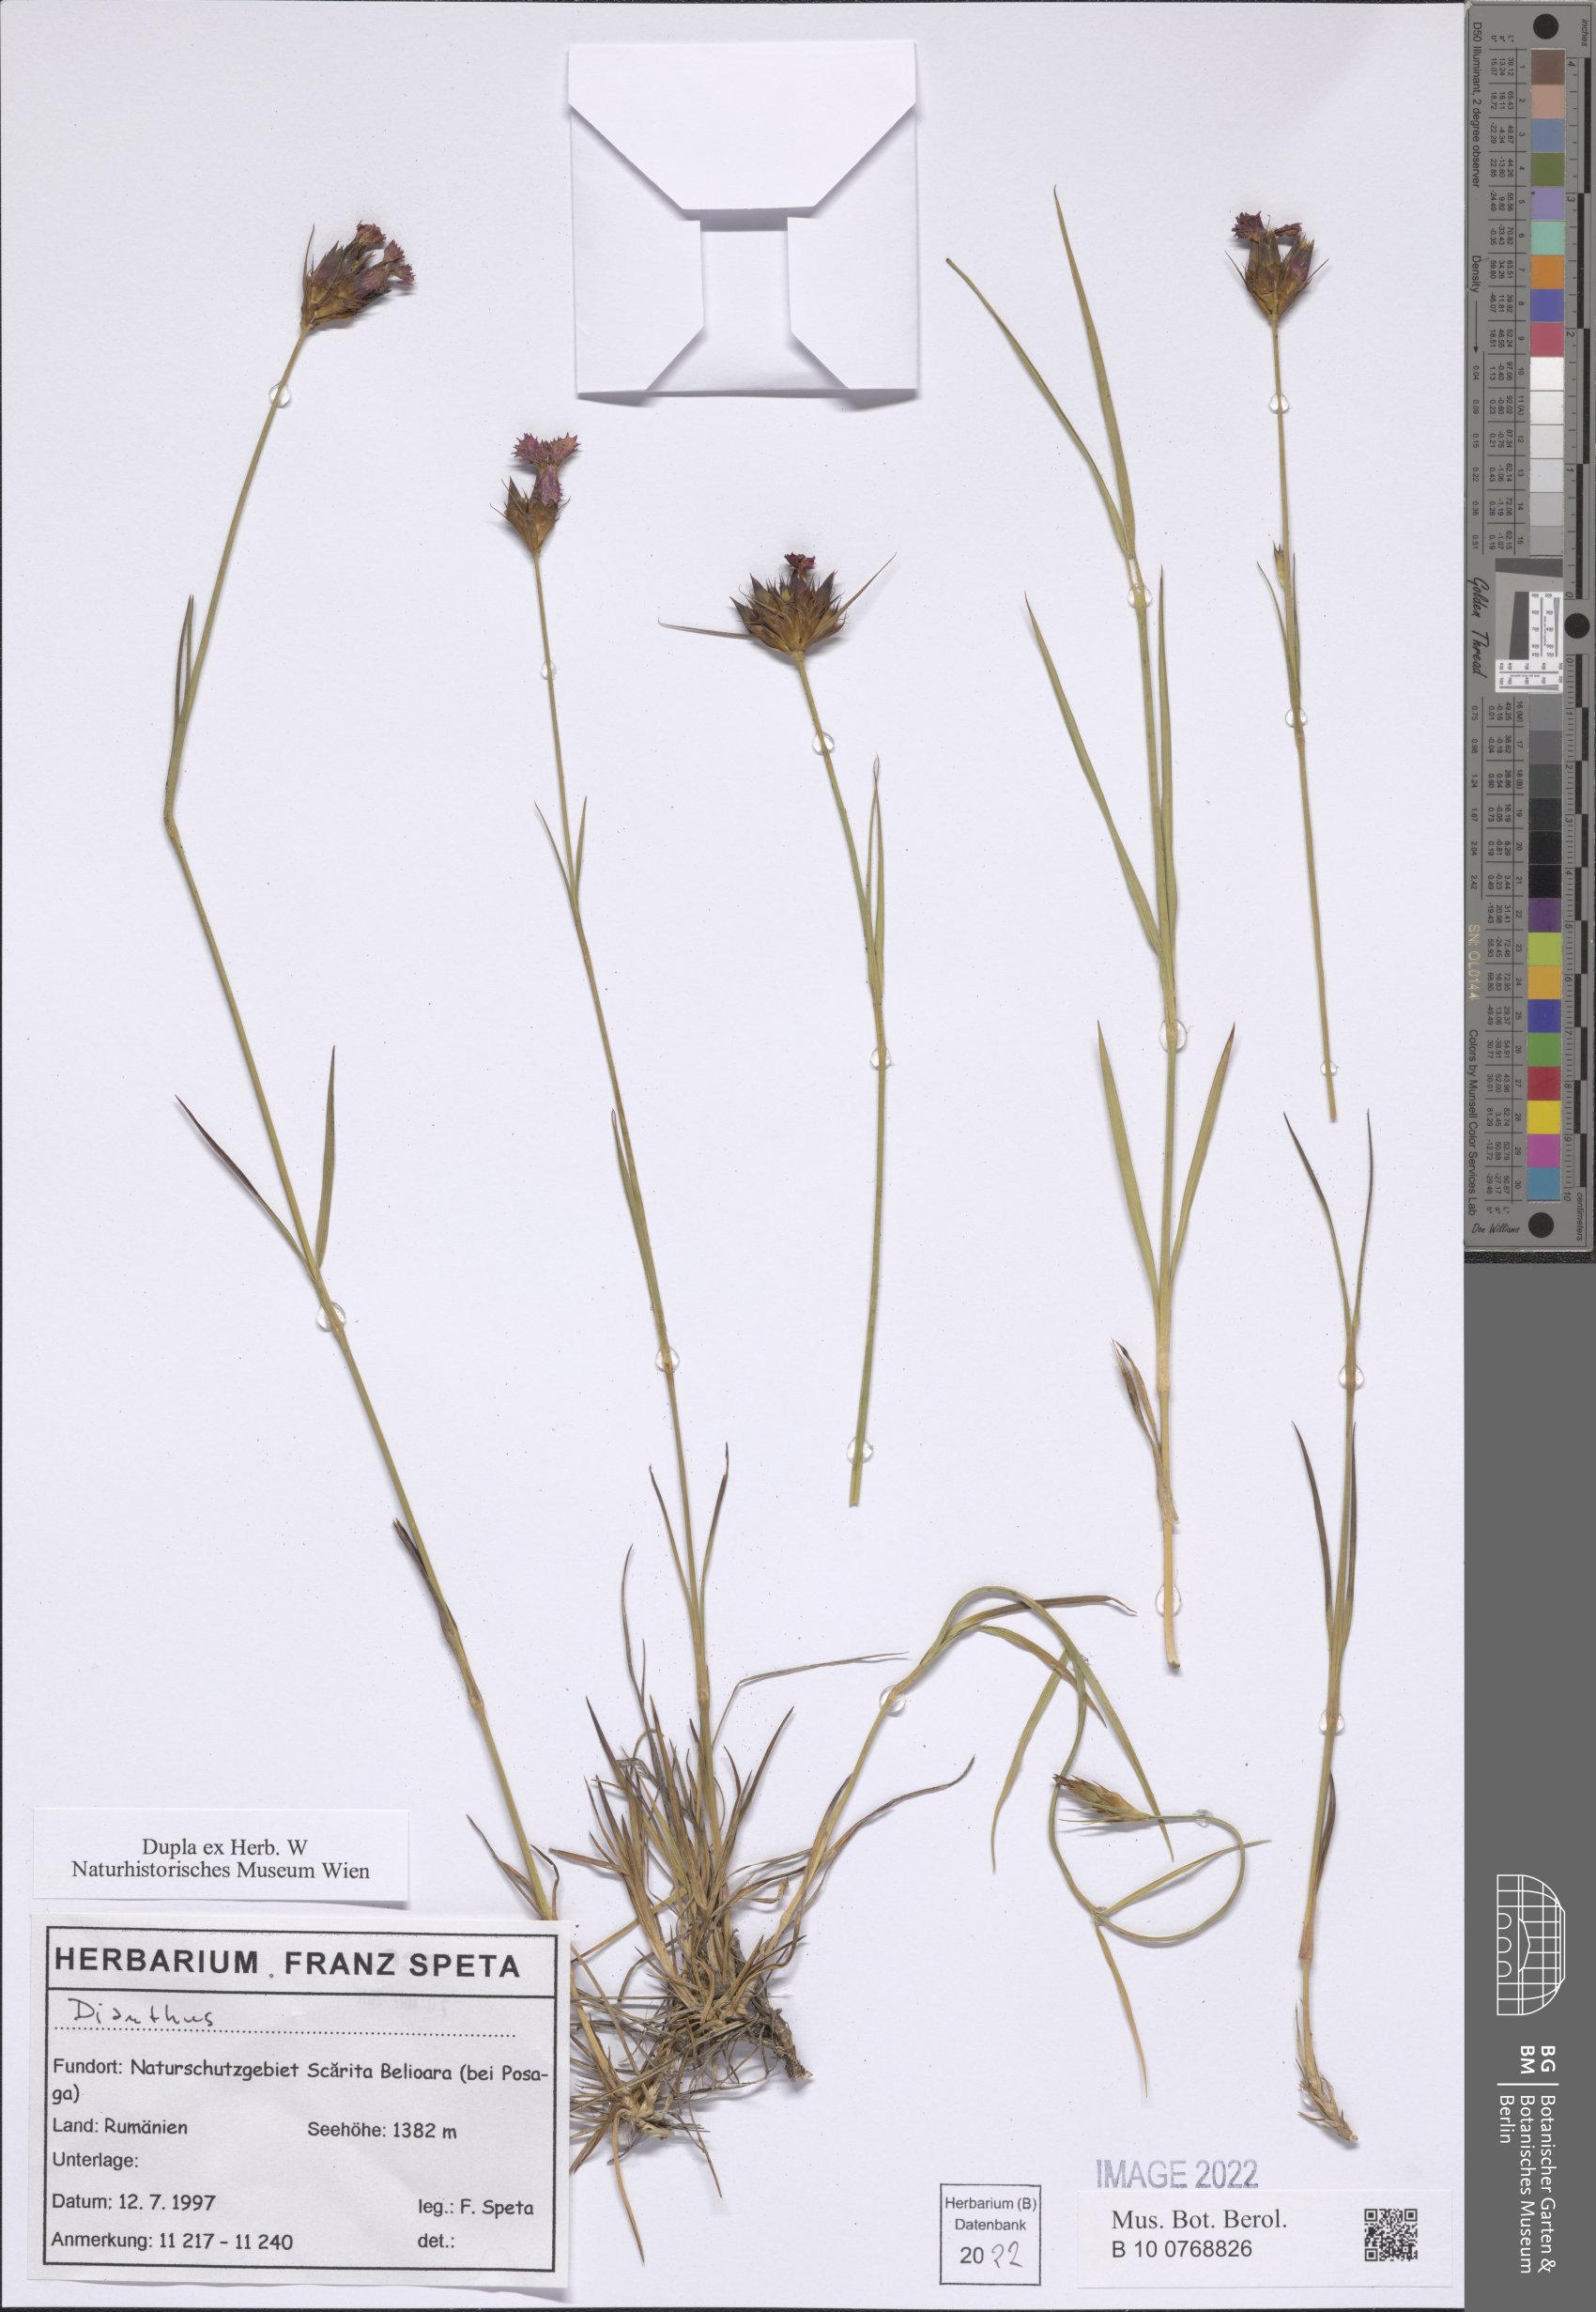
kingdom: Plantae
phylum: Tracheophyta
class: Magnoliopsida
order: Caryophyllales
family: Caryophyllaceae
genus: Dianthus
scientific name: Dianthus
